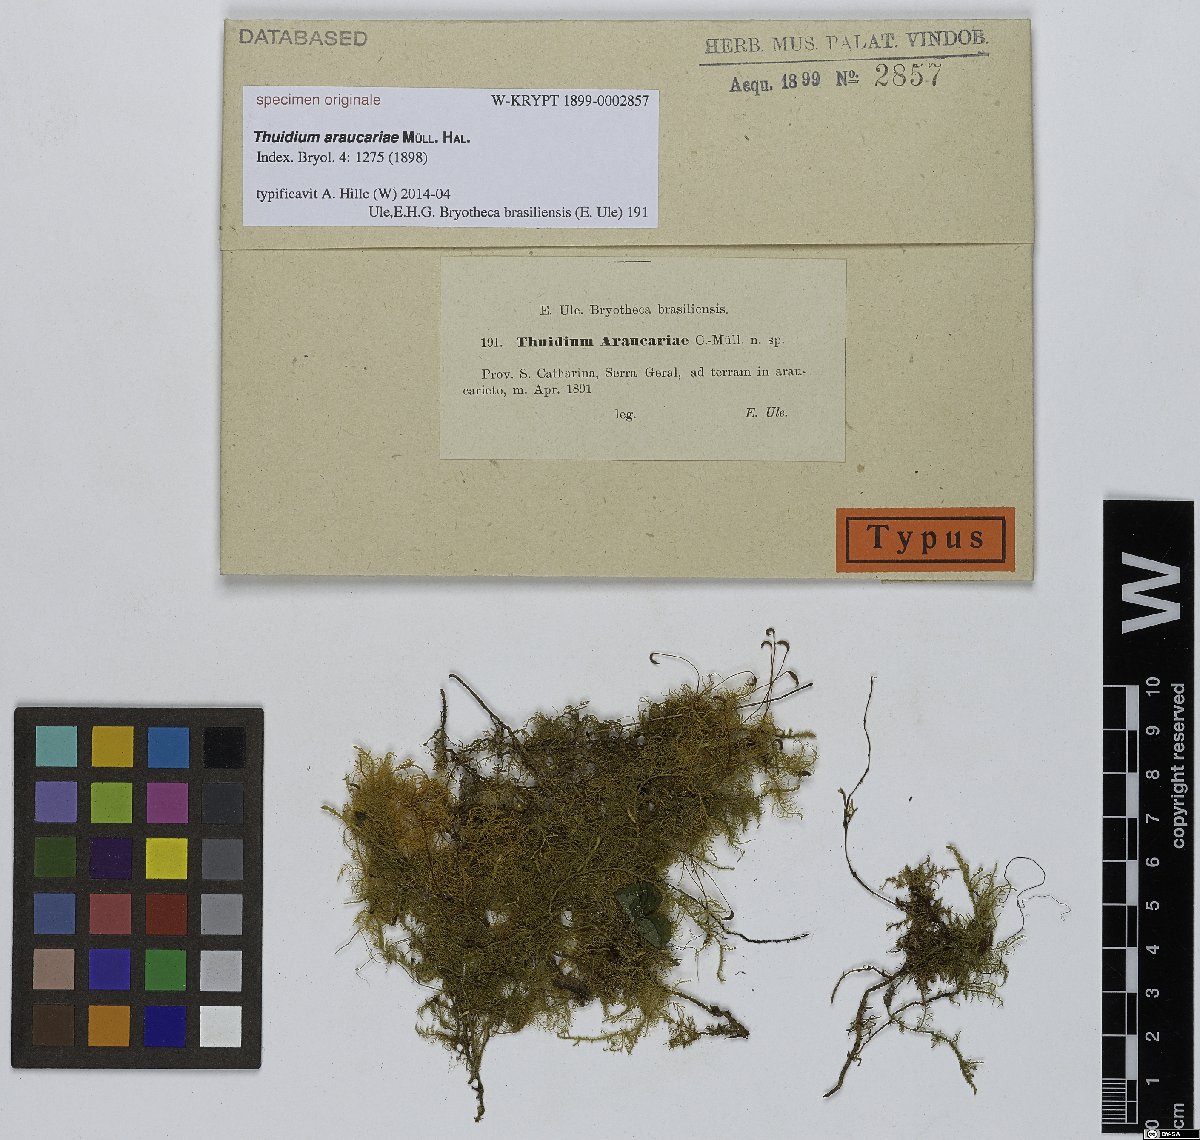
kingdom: Plantae
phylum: Bryophyta
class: Bryopsida
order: Hypnales
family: Thuidiaceae
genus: Thuidium
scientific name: Thuidium
